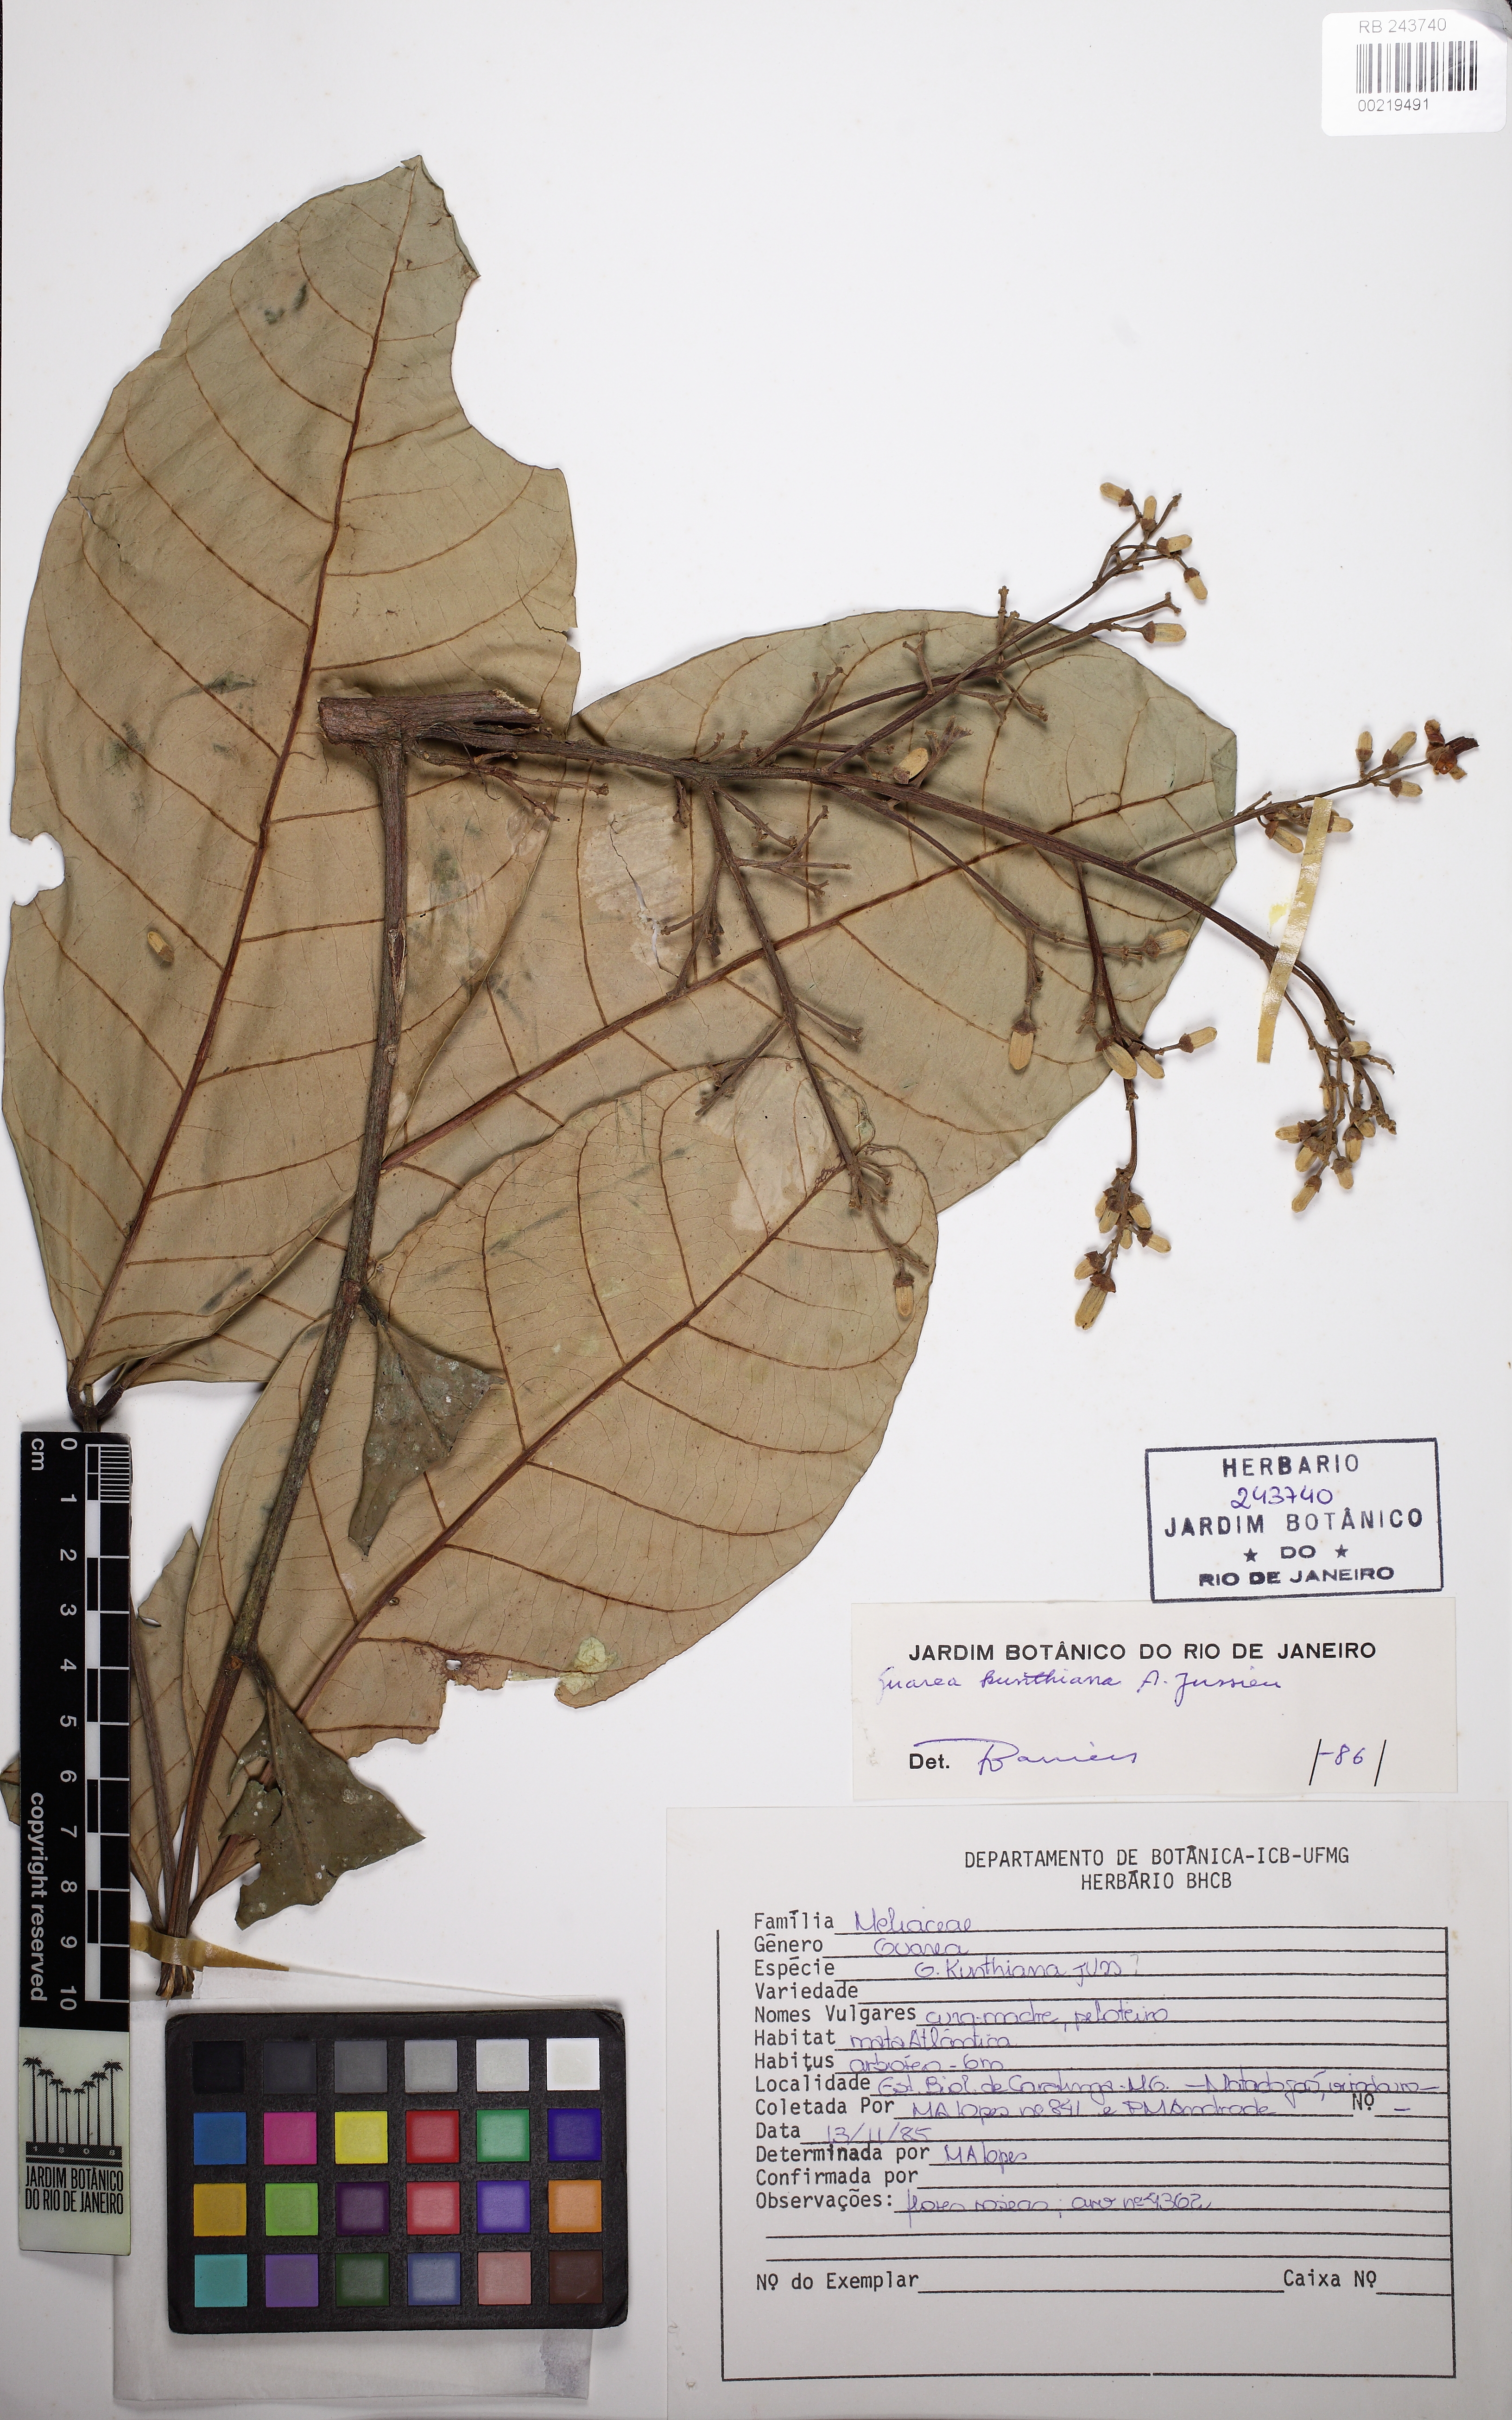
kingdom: Plantae
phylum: Tracheophyta
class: Magnoliopsida
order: Sapindales
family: Meliaceae
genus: Guarea
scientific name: Guarea kunthiana
